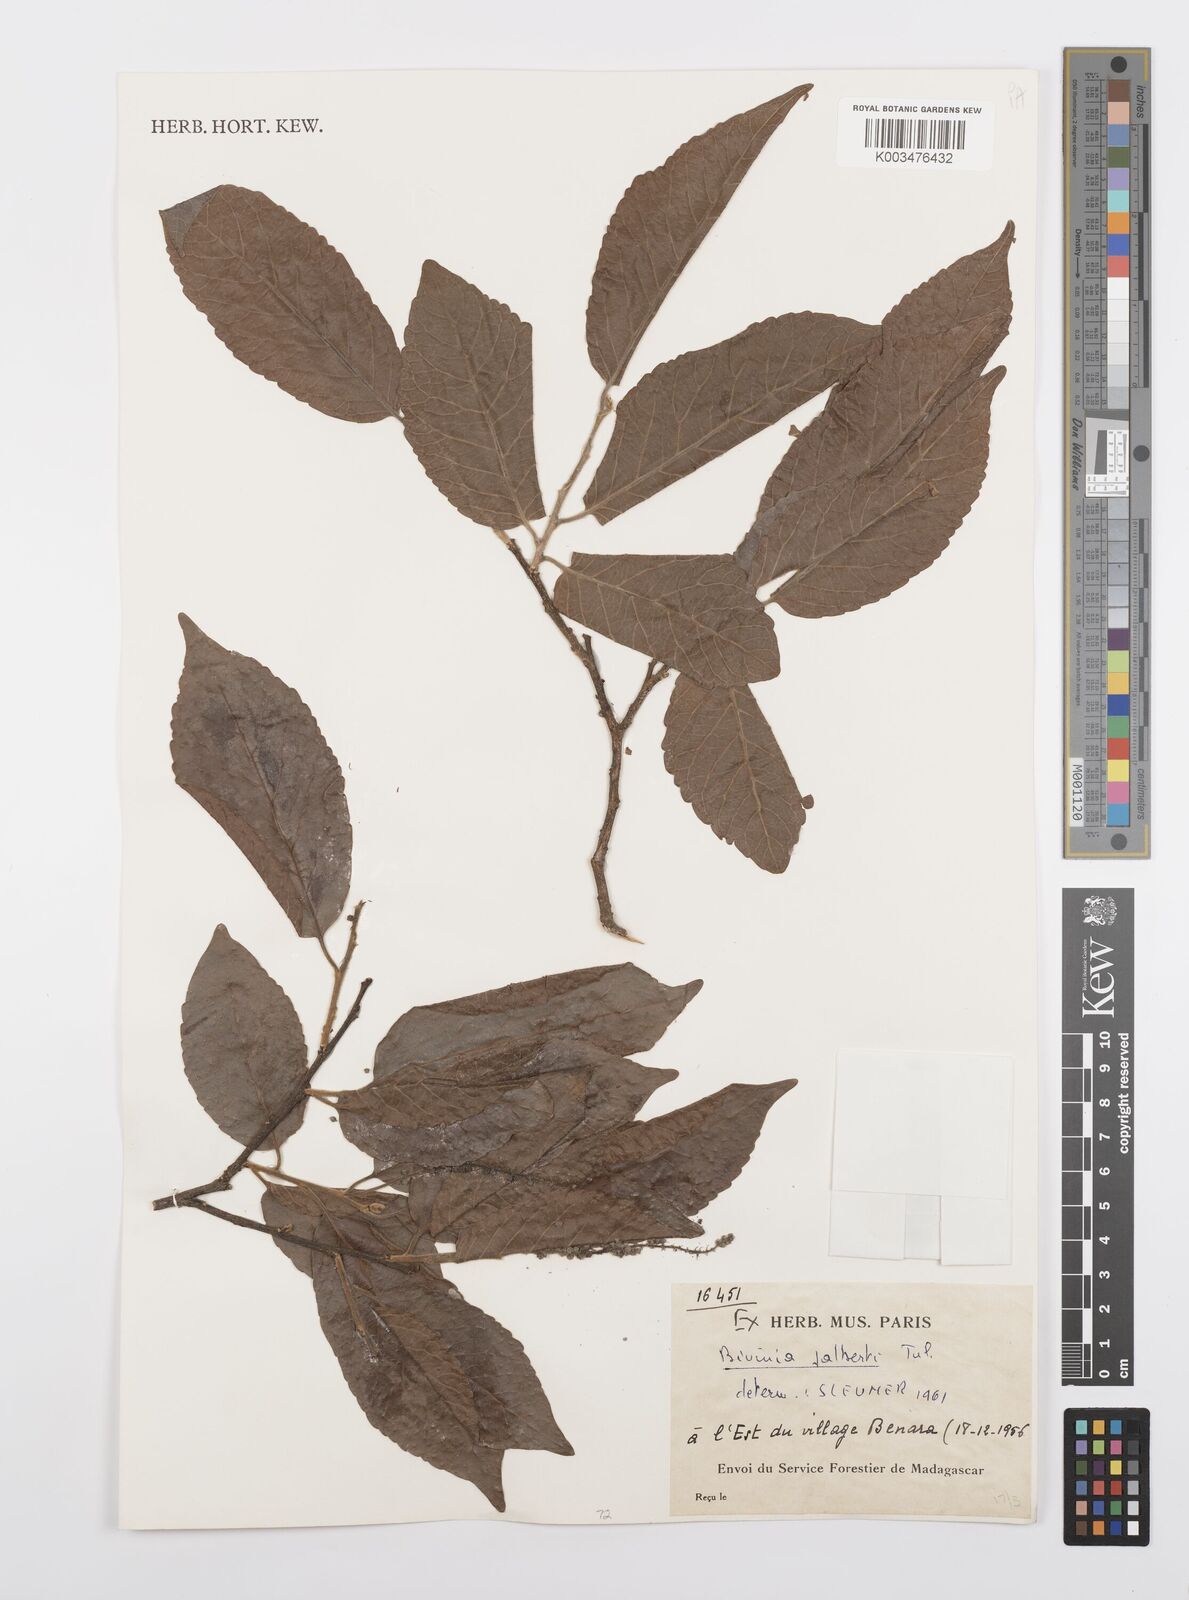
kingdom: Plantae
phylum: Tracheophyta
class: Magnoliopsida
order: Malpighiales
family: Salicaceae
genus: Bivinia
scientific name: Bivinia jalbertii
